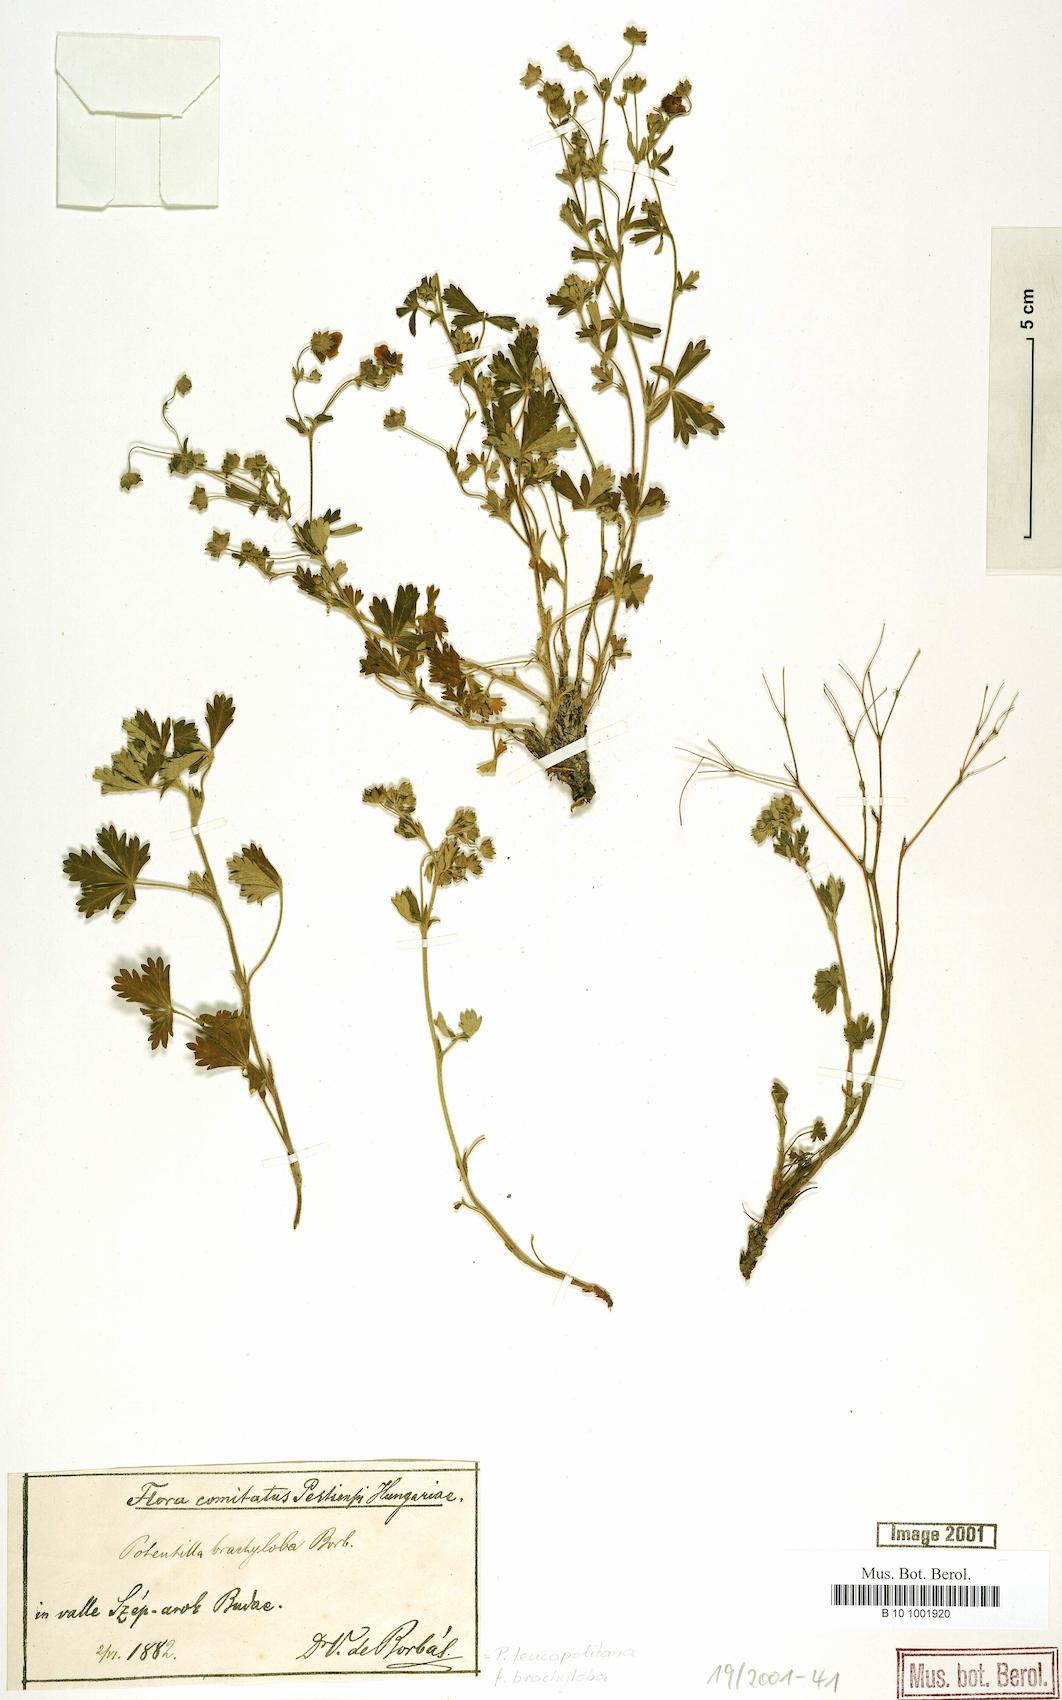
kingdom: Plantae
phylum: Tracheophyta
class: Magnoliopsida
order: Rosales
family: Rosaceae
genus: Potentilla
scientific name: Potentilla brachyloba
